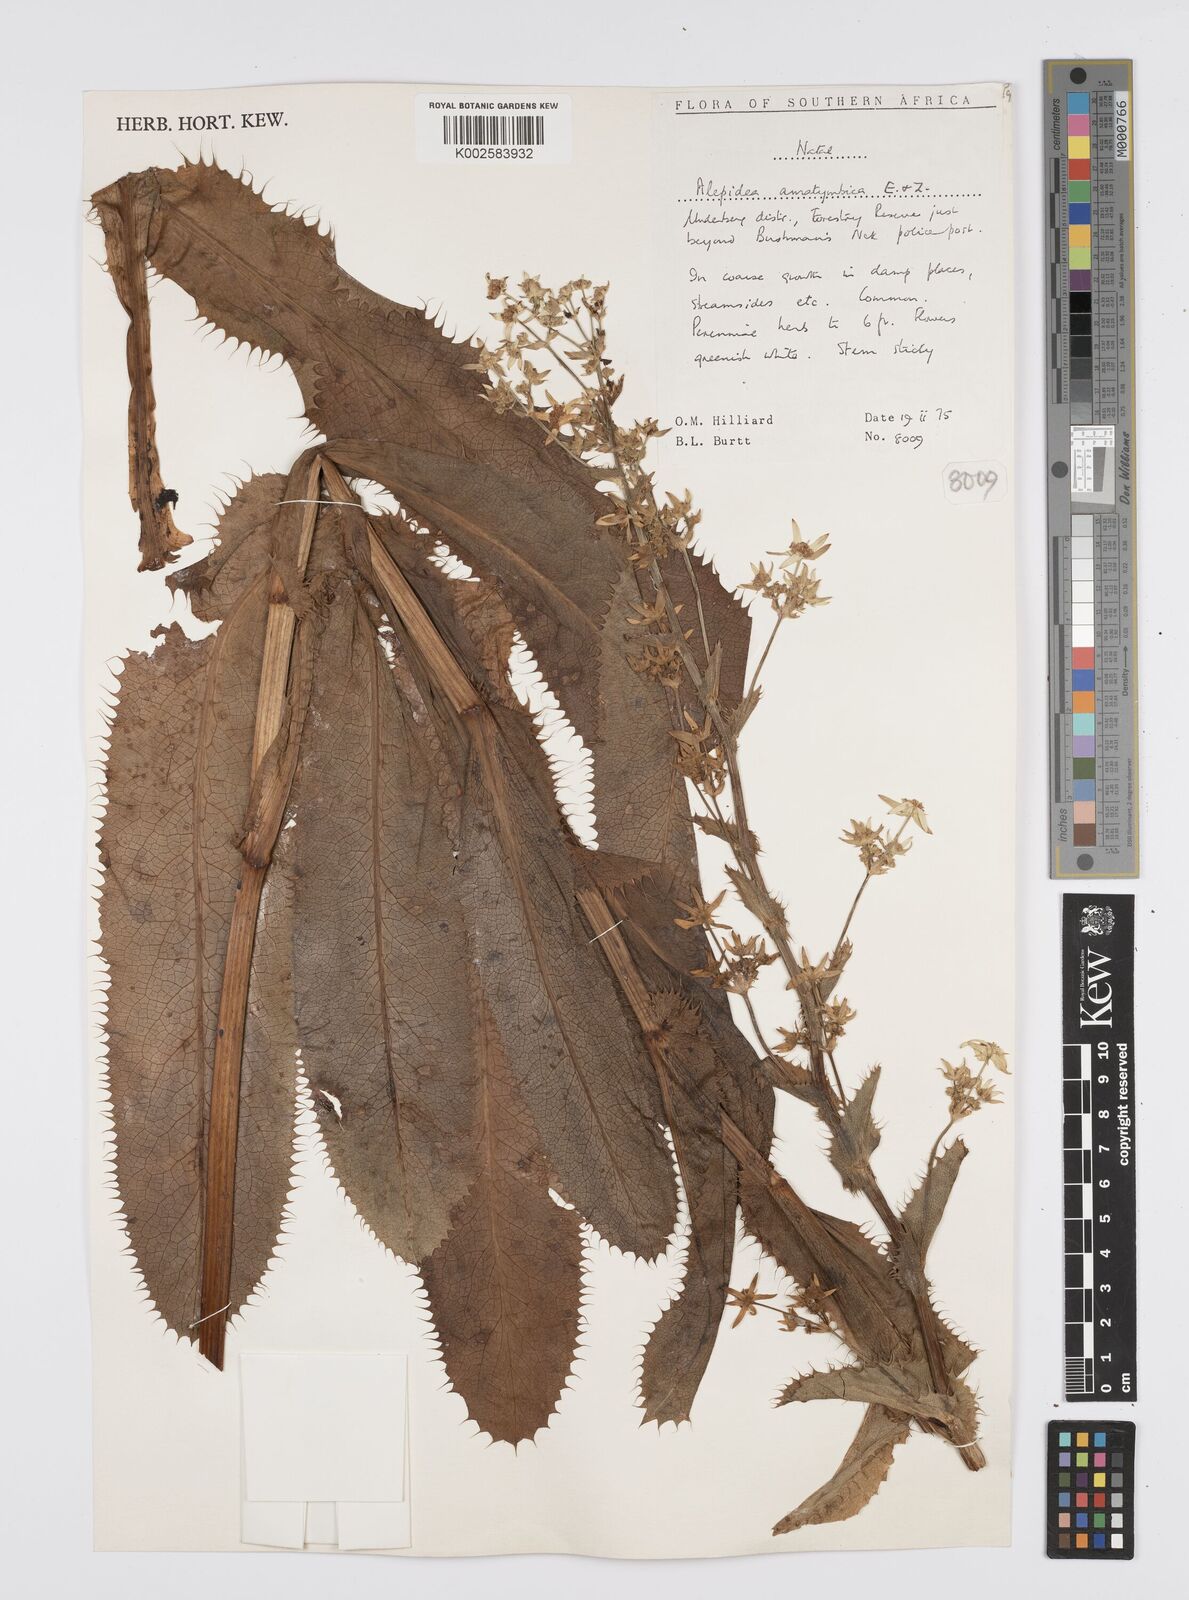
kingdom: Plantae
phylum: Tracheophyta
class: Magnoliopsida
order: Apiales
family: Apiaceae
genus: Alepidea
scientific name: Alepidea amatymbica
